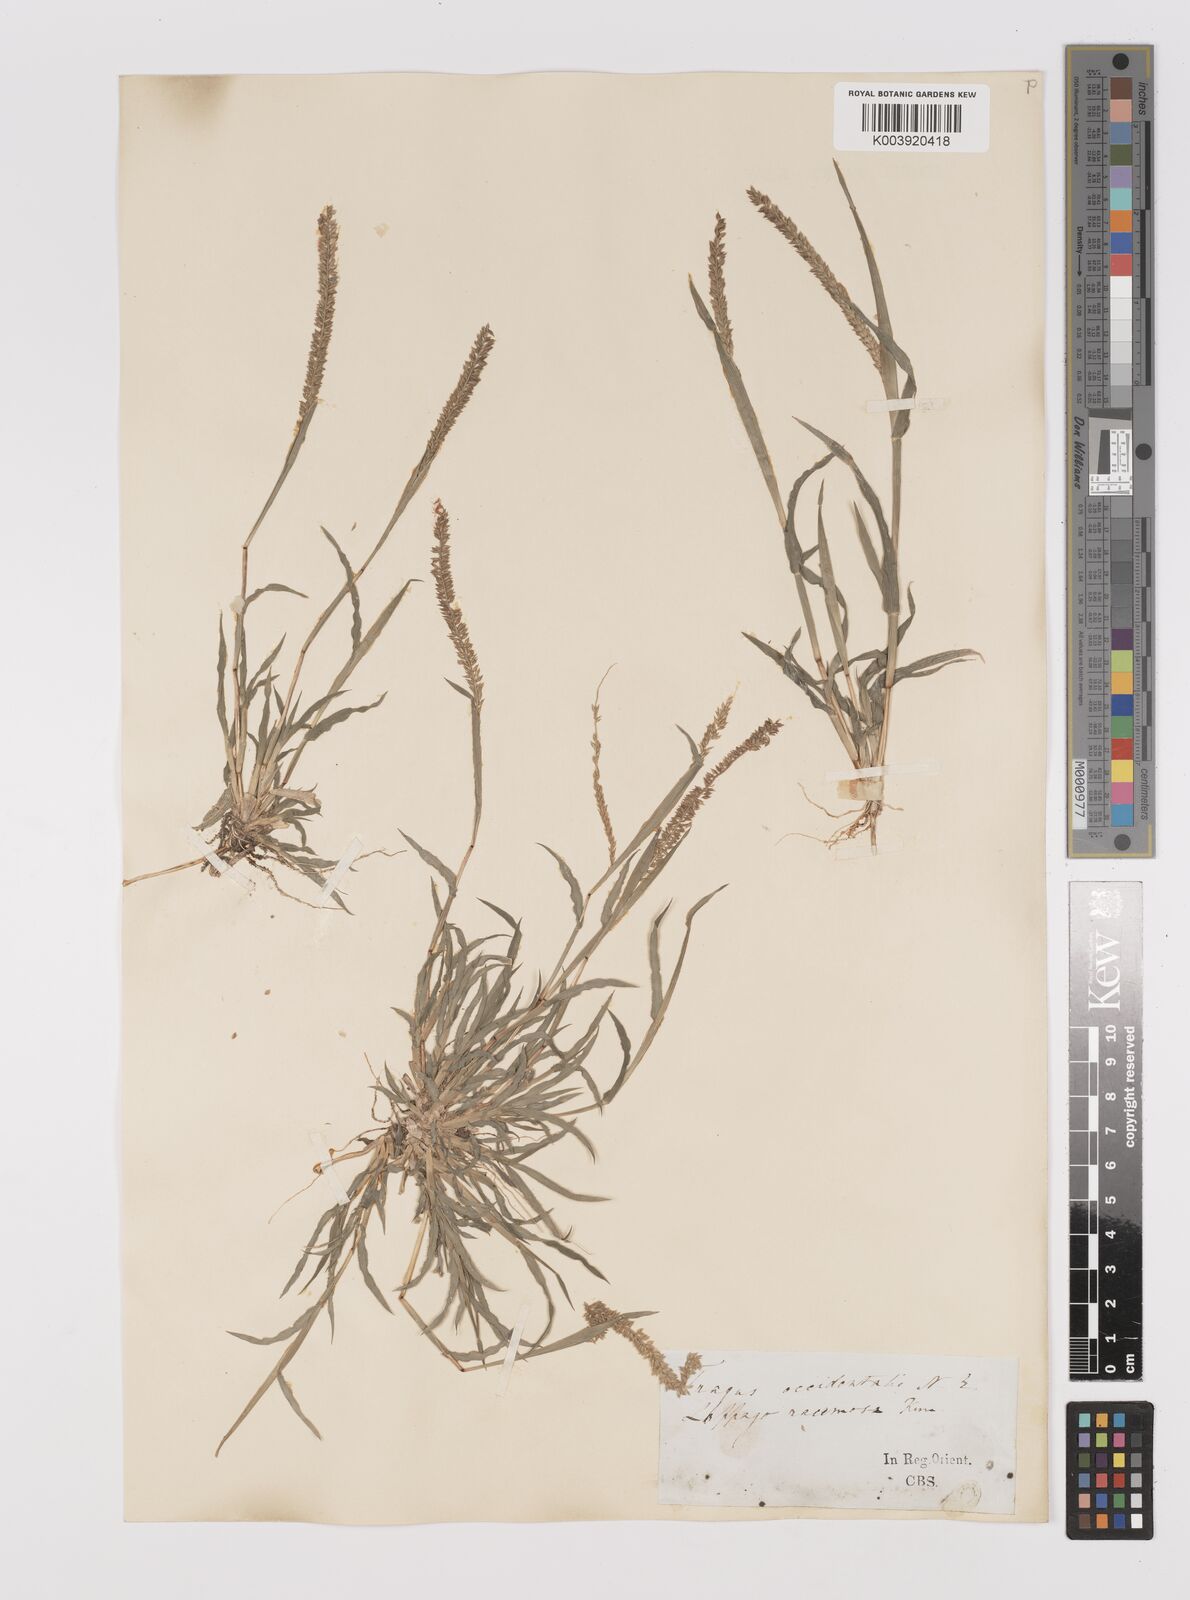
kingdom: Plantae
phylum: Tracheophyta
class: Liliopsida
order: Poales
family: Poaceae
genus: Tragus
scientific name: Tragus berteronianus
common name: African bur-grass
